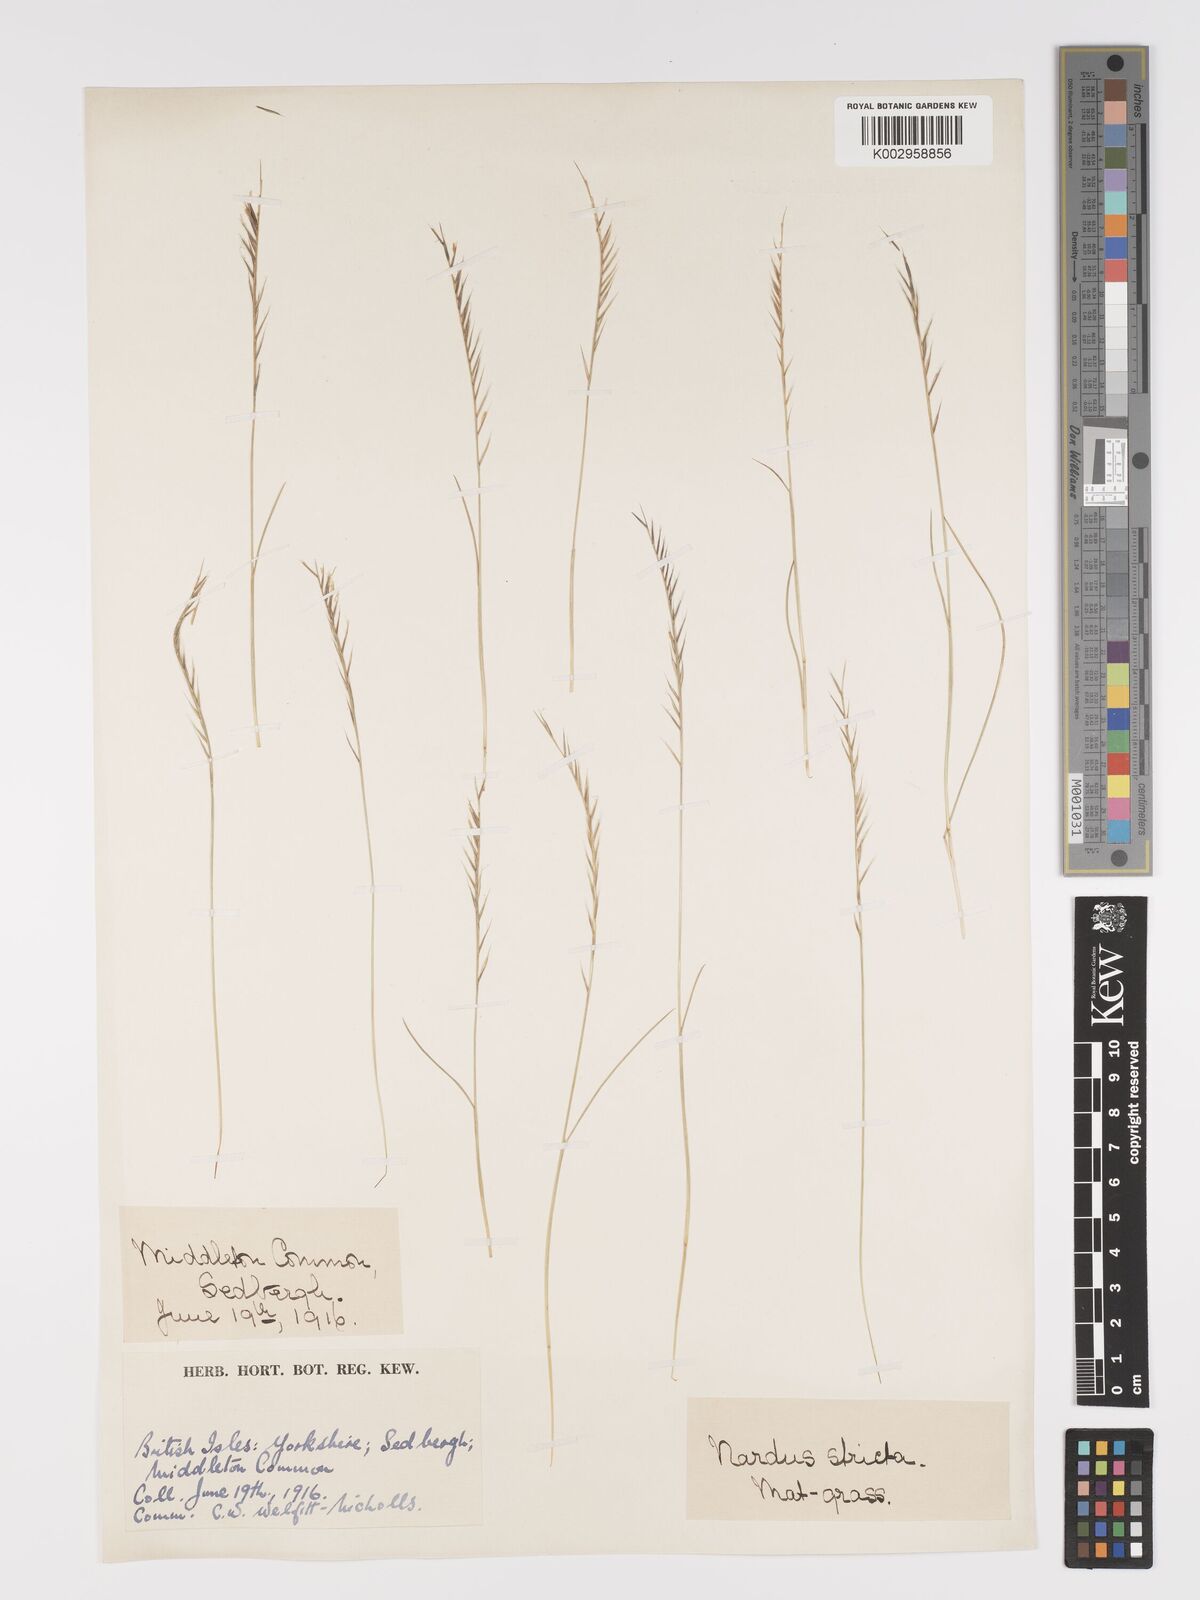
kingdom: Plantae
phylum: Tracheophyta
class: Liliopsida
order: Poales
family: Poaceae
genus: Nardus
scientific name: Nardus stricta
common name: Mat-grass
